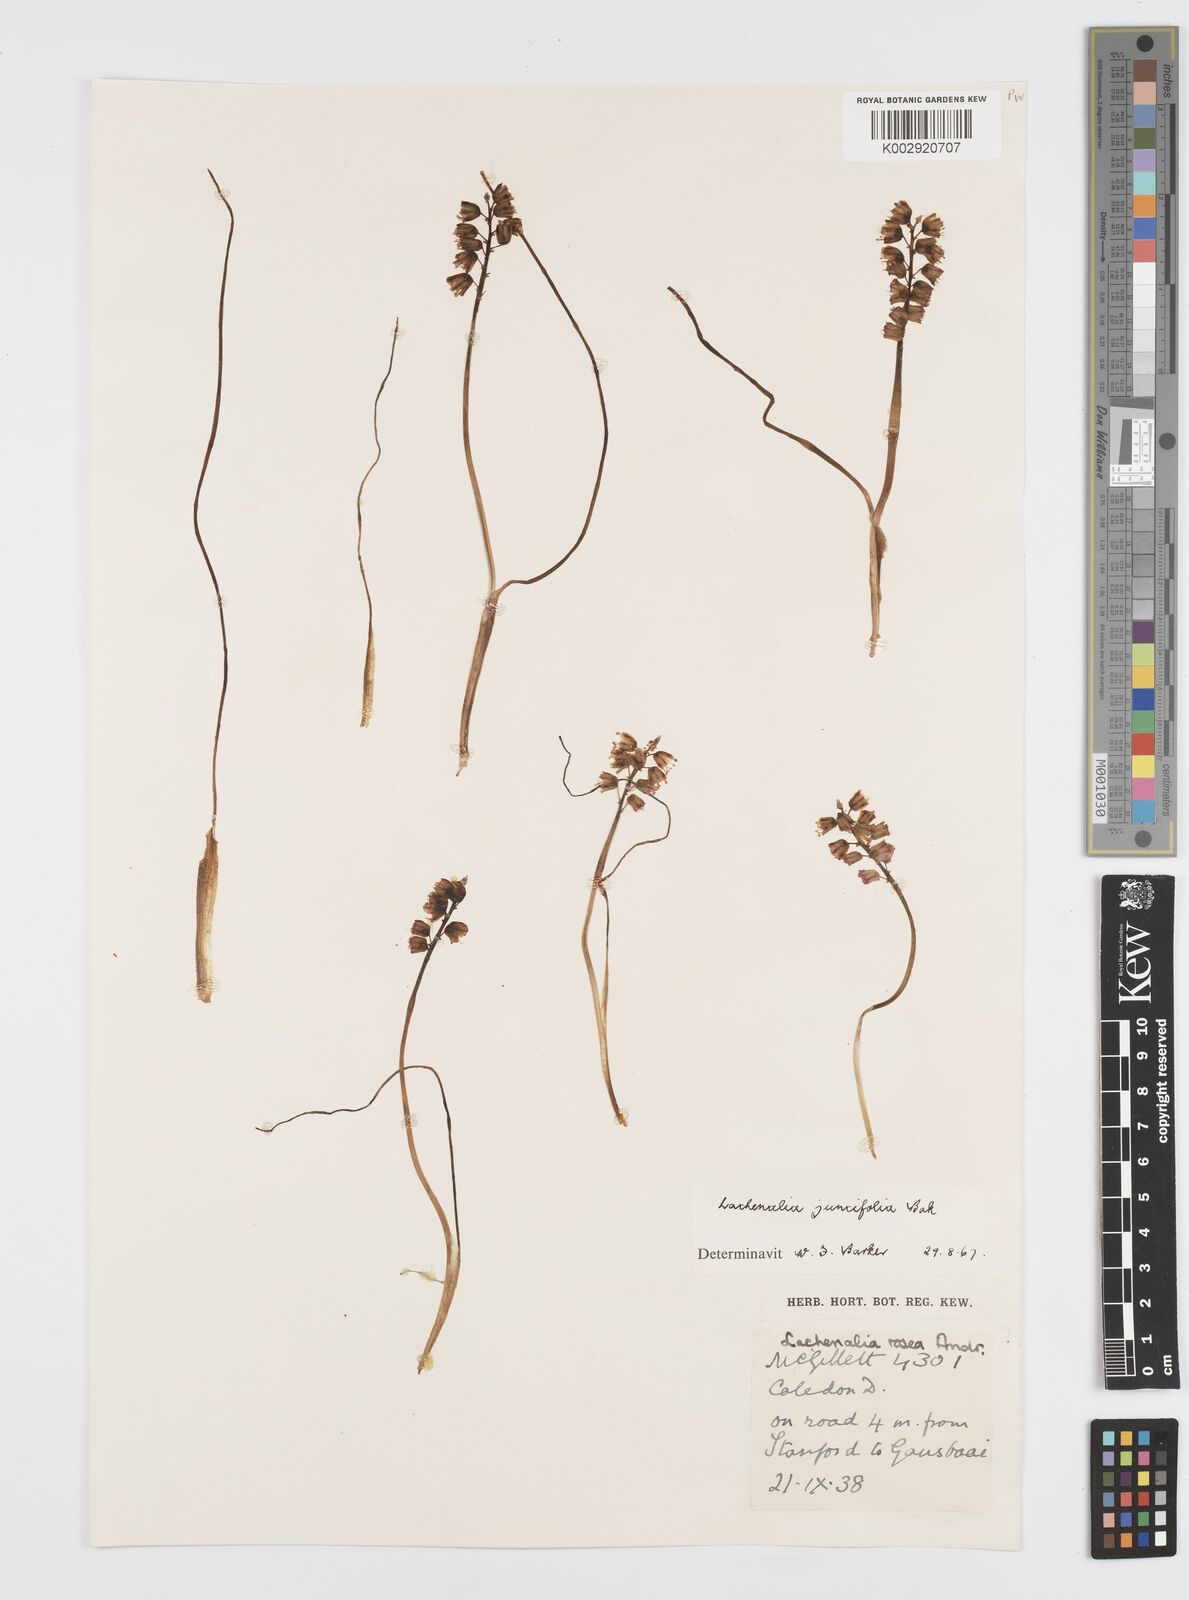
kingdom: Plantae
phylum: Tracheophyta
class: Liliopsida
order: Asparagales
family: Asparagaceae
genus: Lachenalia
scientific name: Lachenalia juncifolia
